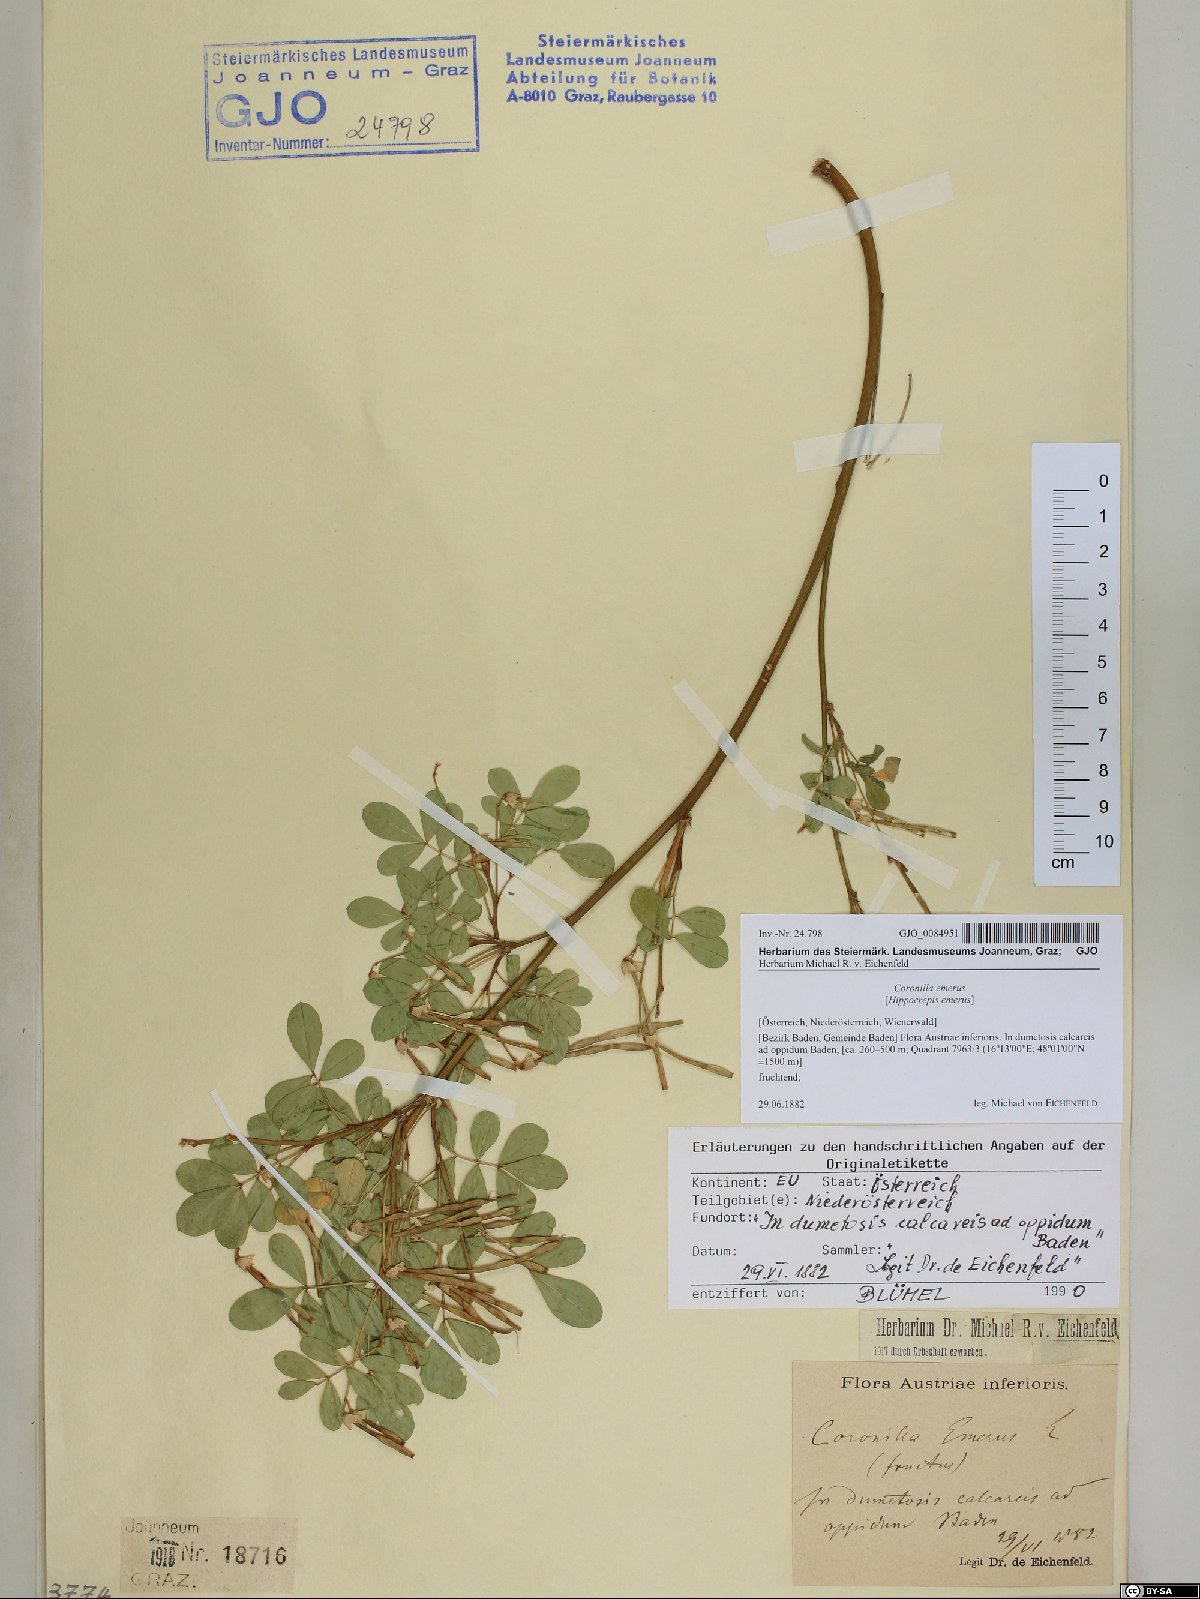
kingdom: Plantae
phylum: Tracheophyta
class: Magnoliopsida
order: Fabales
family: Fabaceae
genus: Hippocrepis
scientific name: Hippocrepis emerus
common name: Scorpion senna
